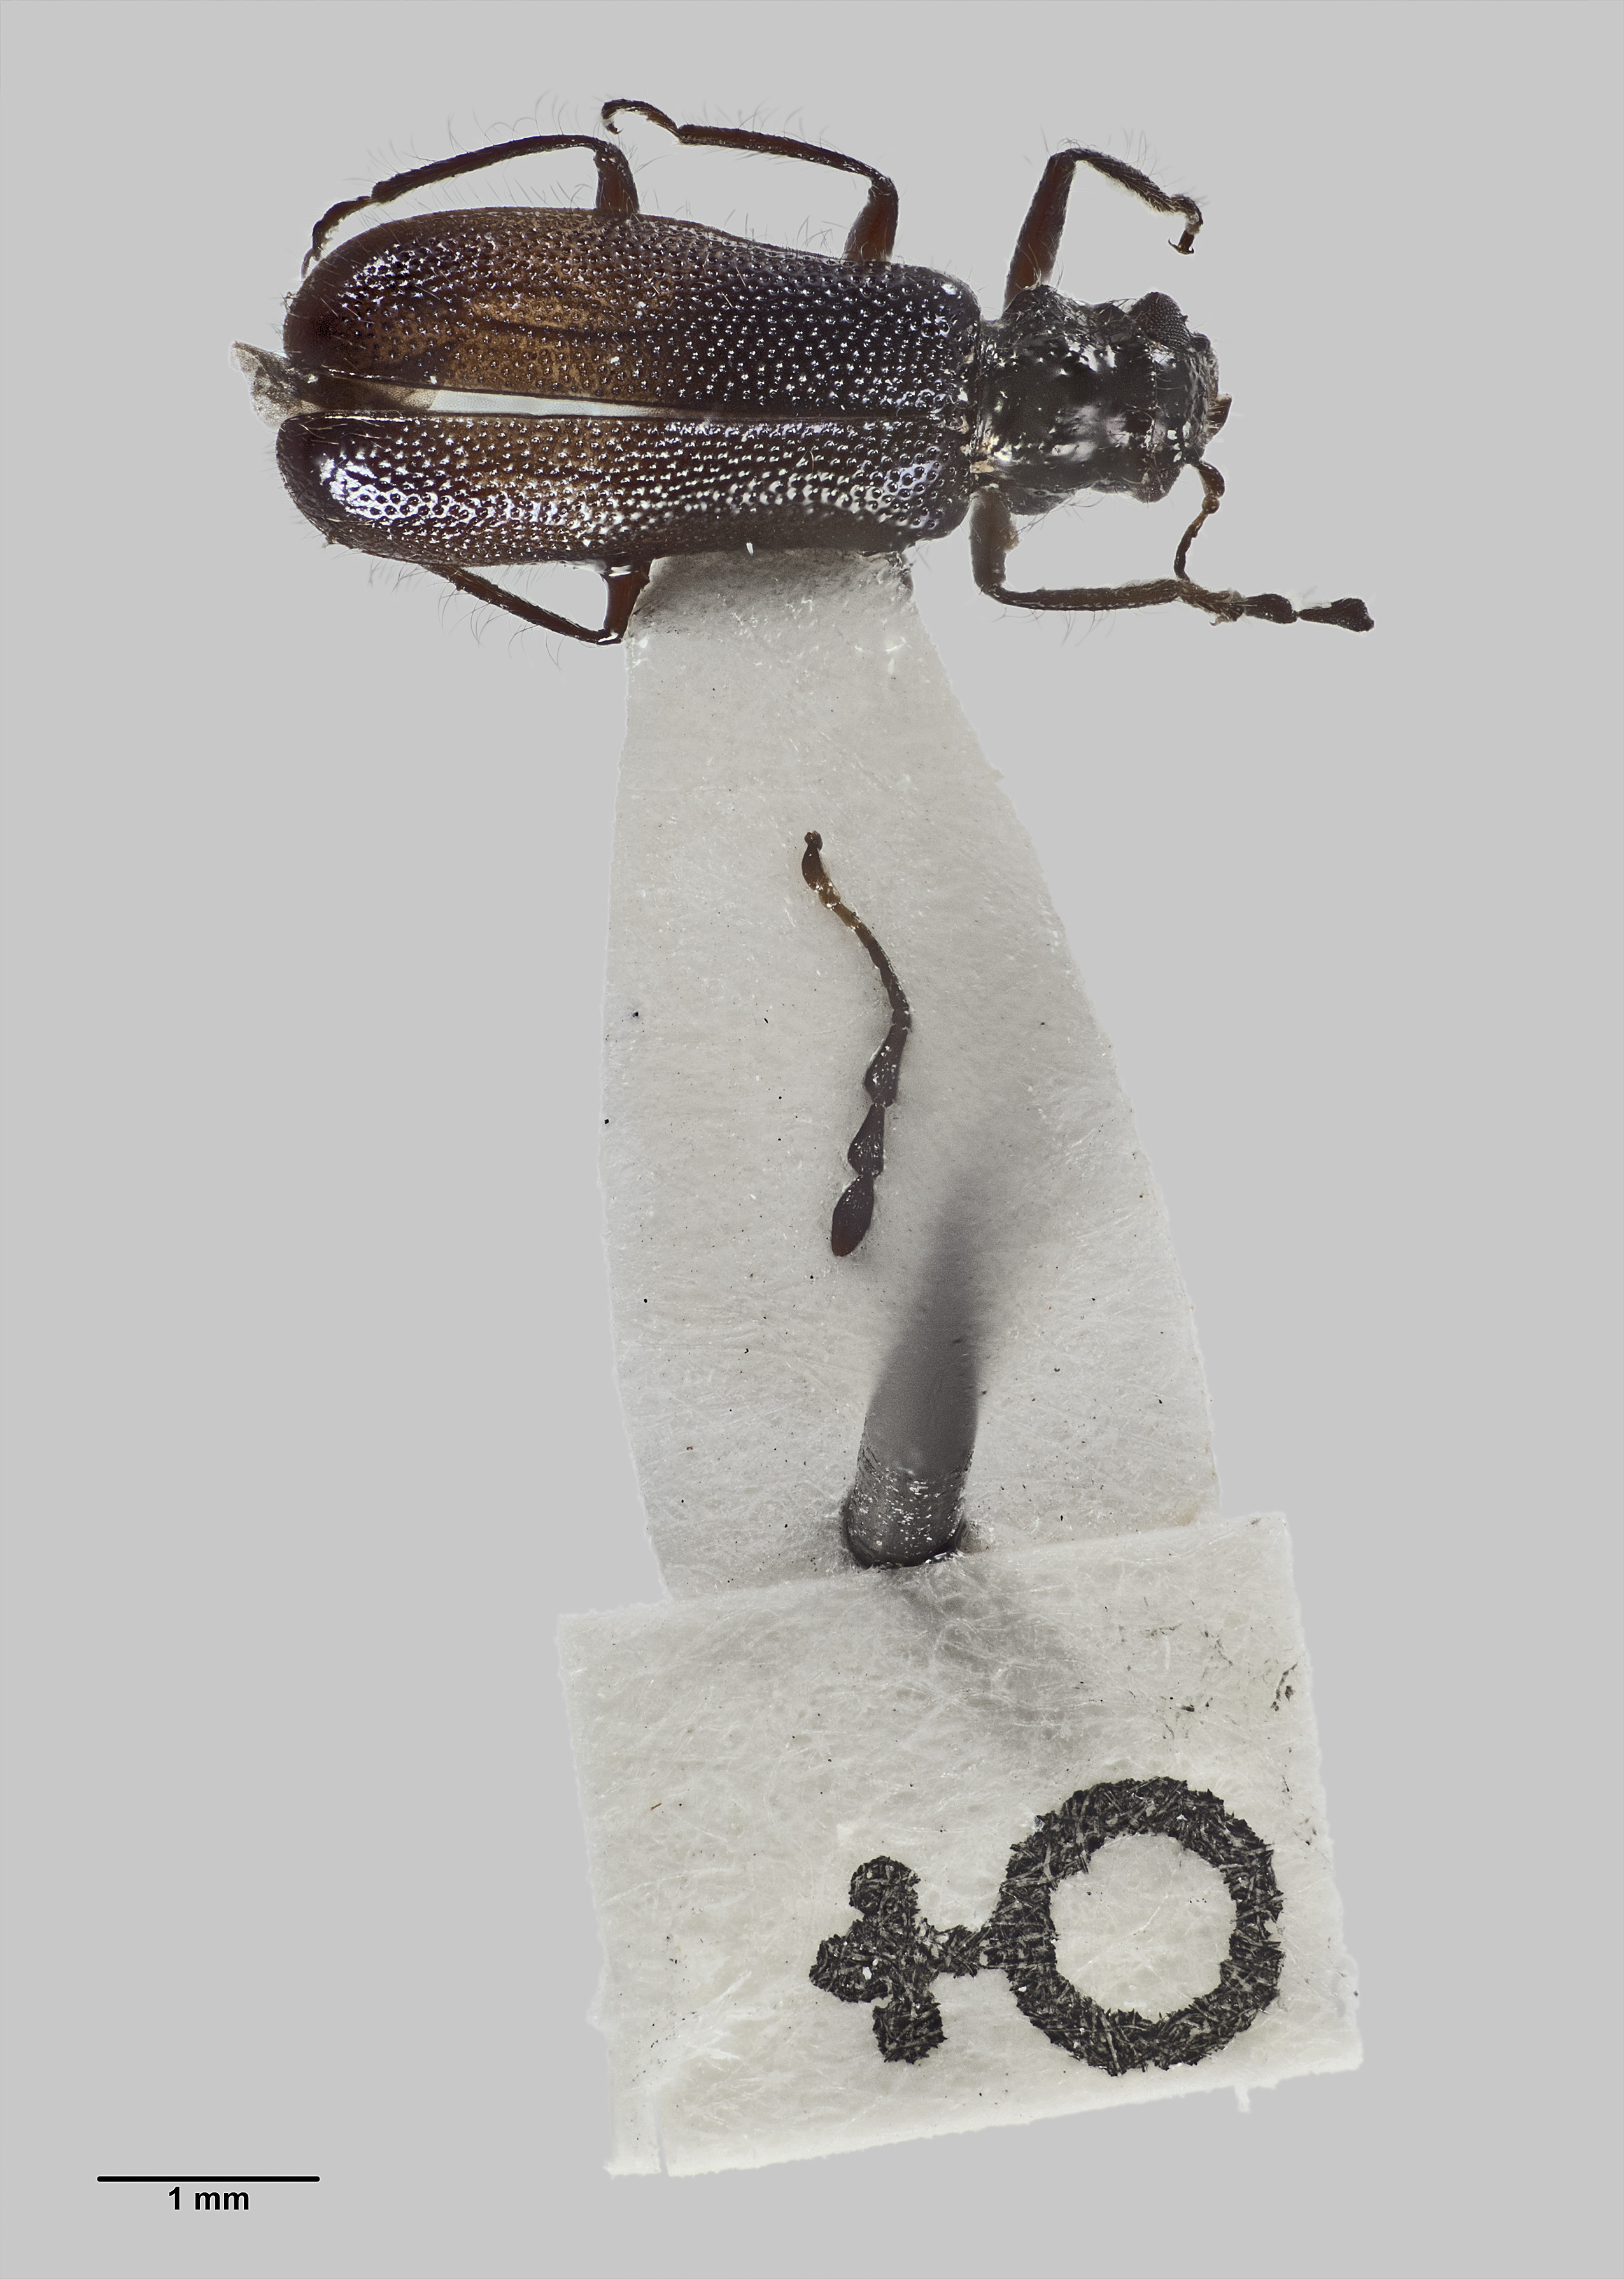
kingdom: Animalia
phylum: Arthropoda
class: Insecta
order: Coleoptera
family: Cleridae
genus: Phymatophaea
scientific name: Phymatophaea
